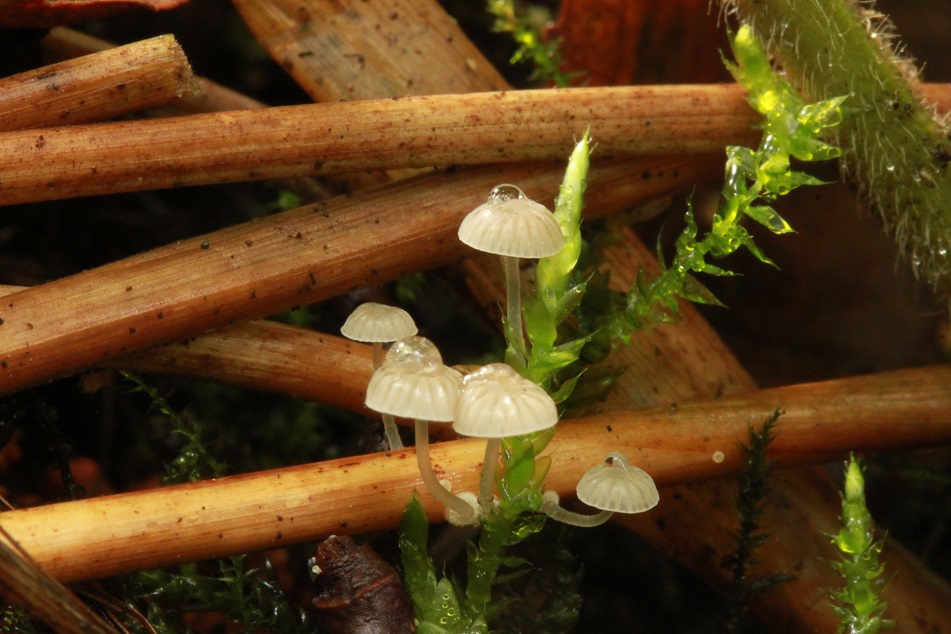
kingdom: Fungi
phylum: Basidiomycota
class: Agaricomycetes
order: Agaricales
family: Mycenaceae
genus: Mycena
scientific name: Mycena bulbosa
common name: siv-huesvamp
